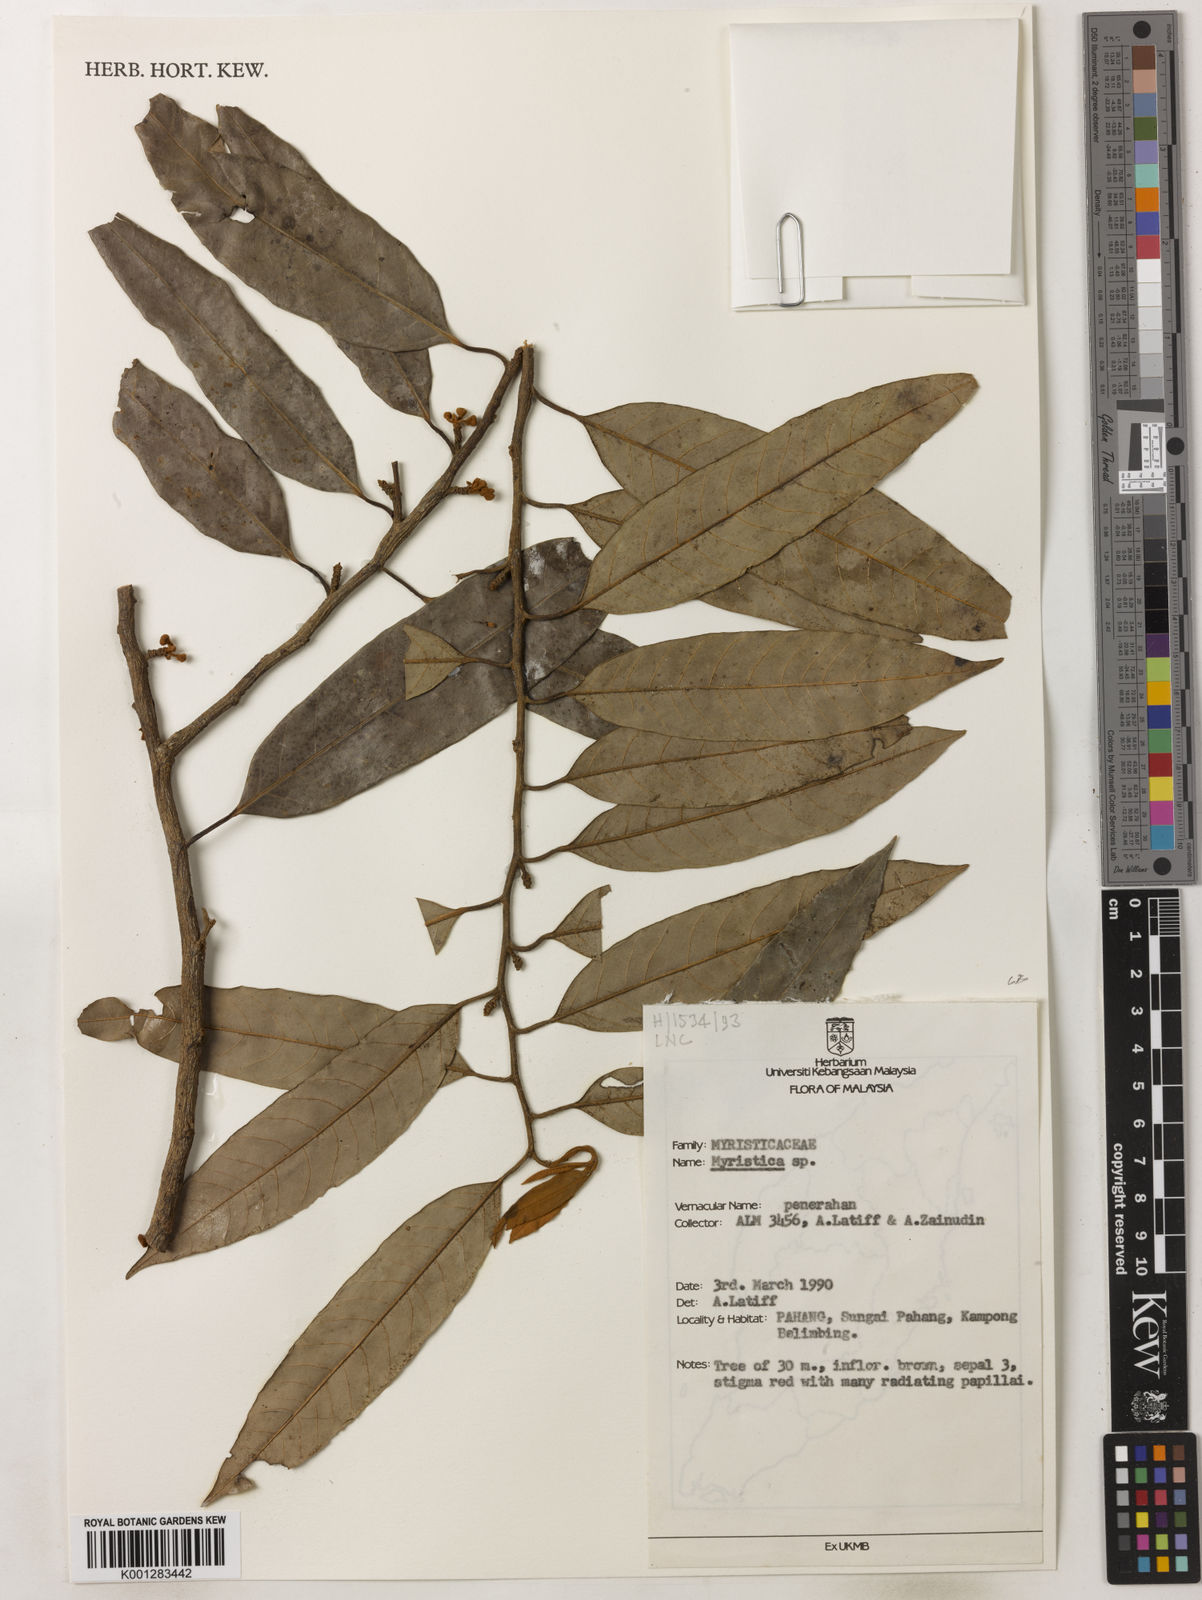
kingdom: Plantae
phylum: Tracheophyta
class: Magnoliopsida
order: Magnoliales
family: Myristicaceae
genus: Myristica
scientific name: Myristica
